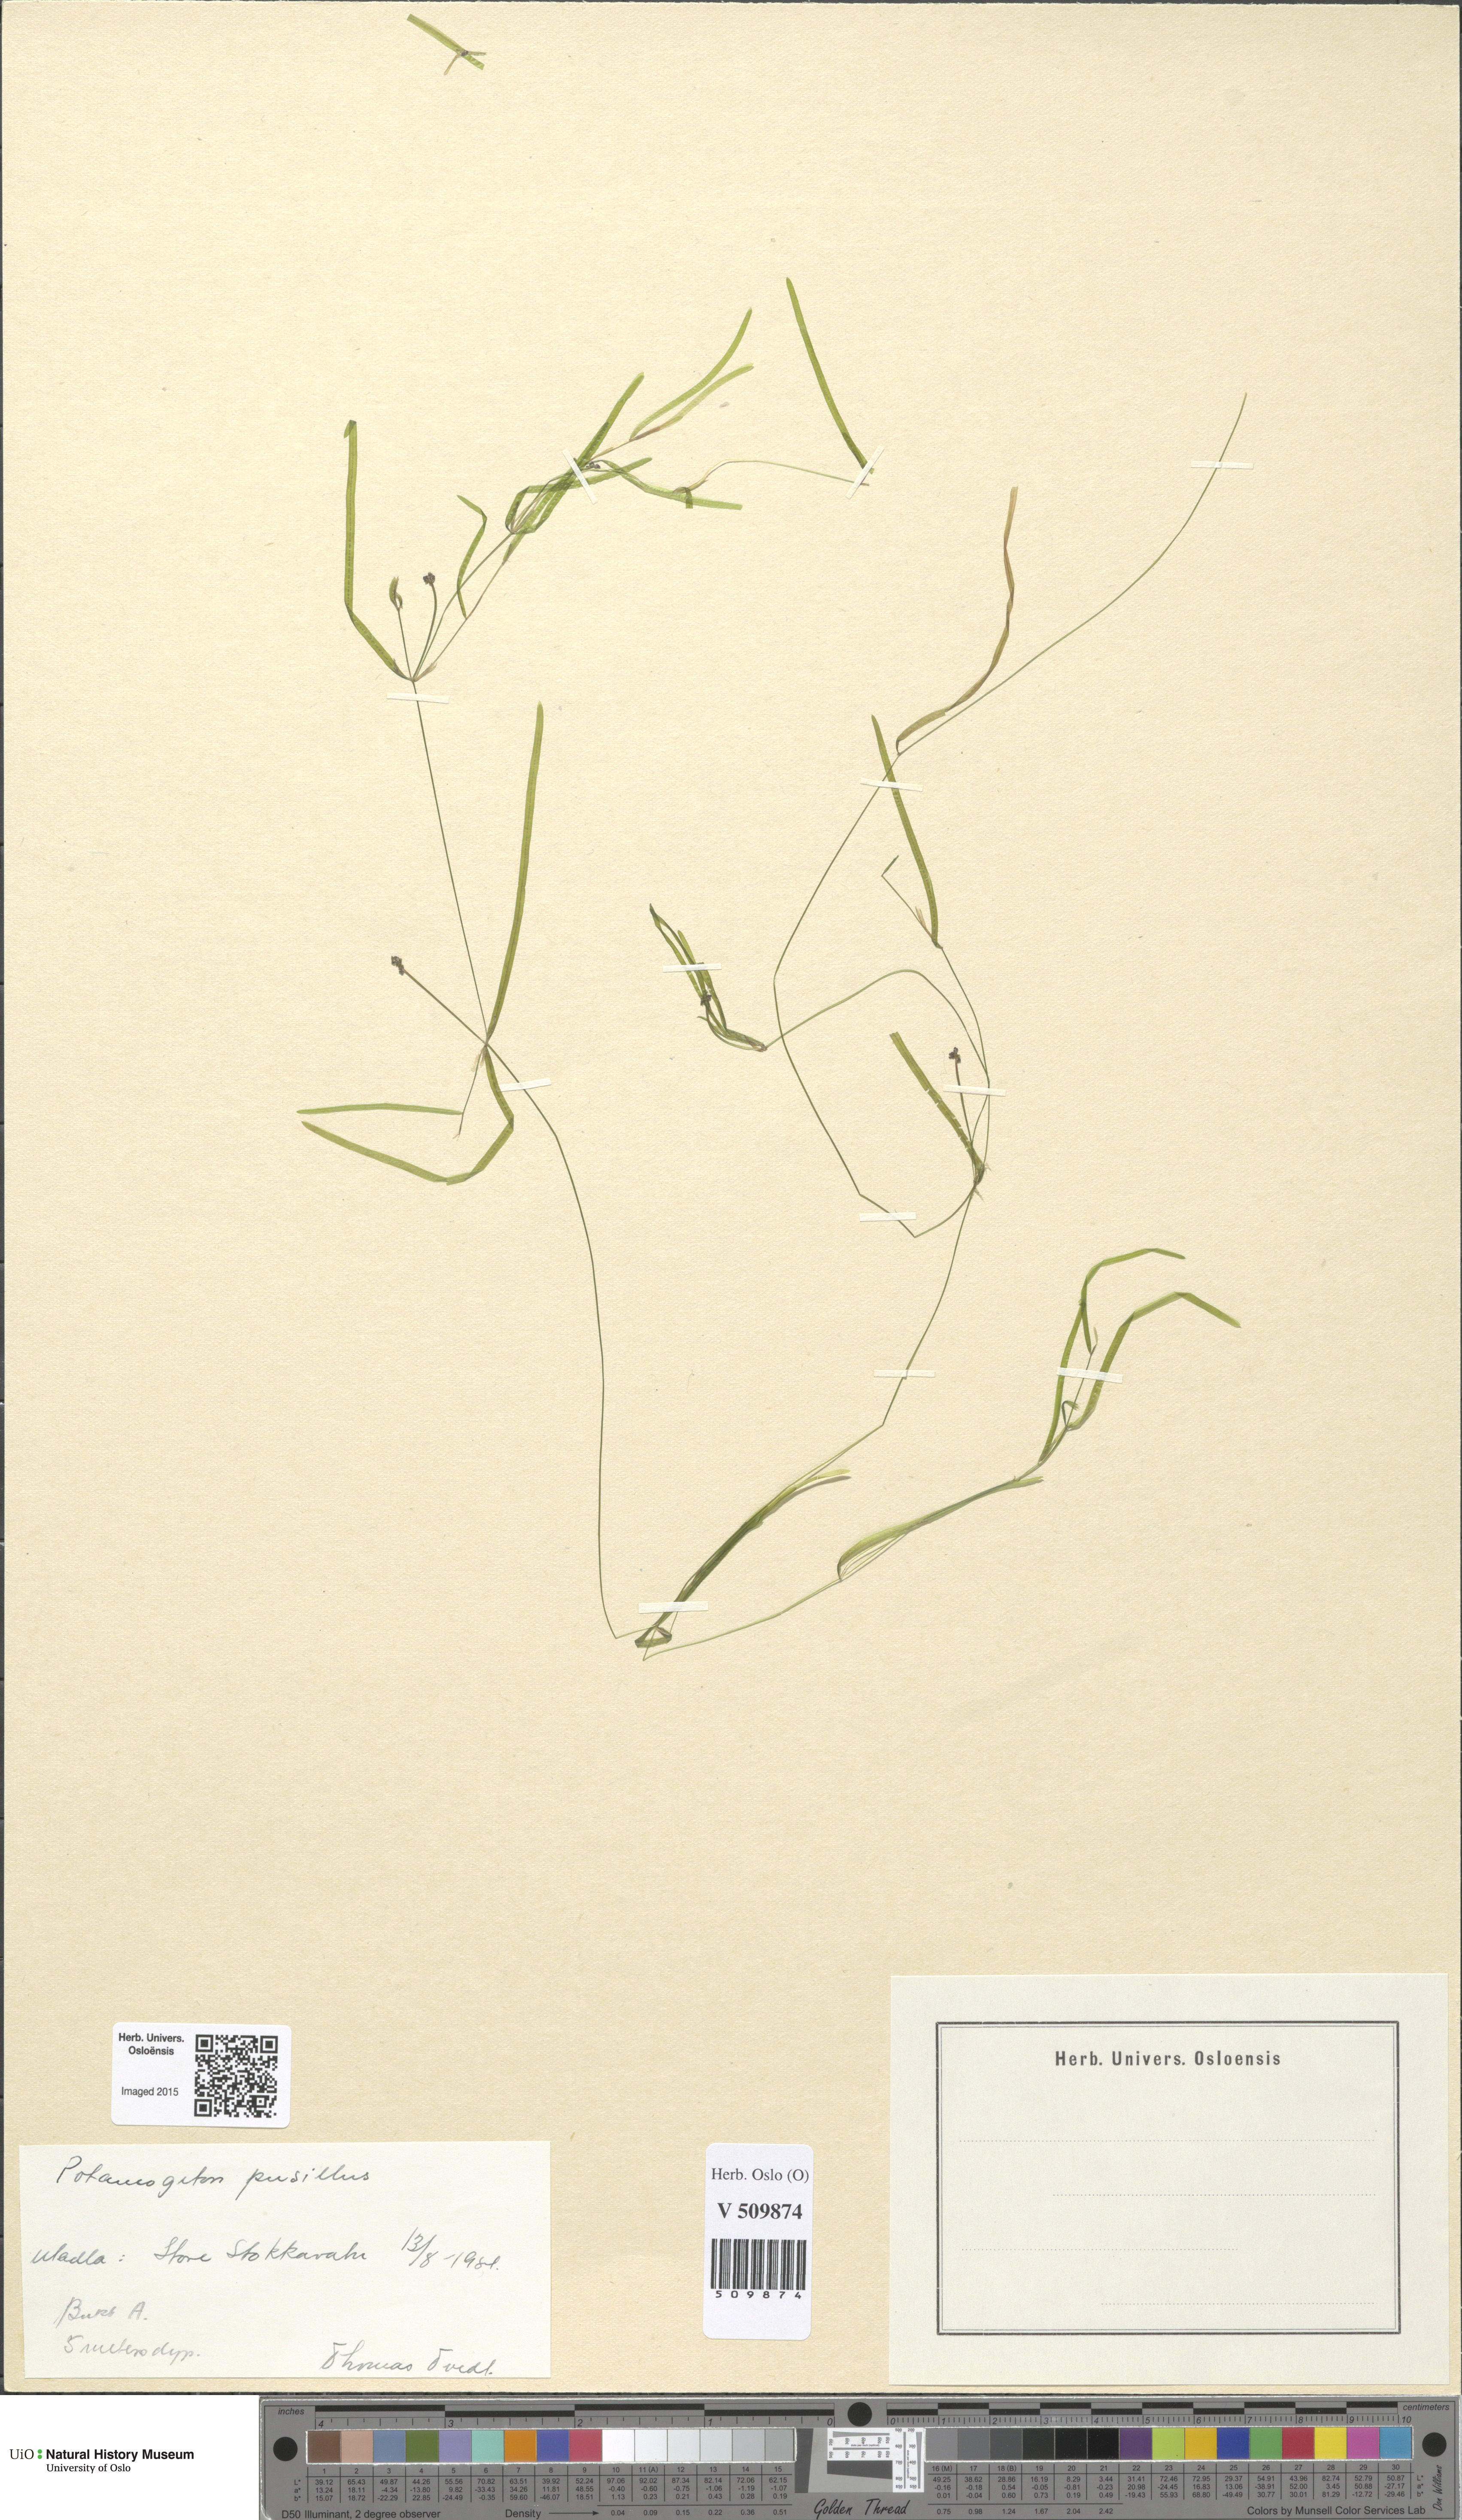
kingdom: Plantae
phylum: Tracheophyta
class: Liliopsida
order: Alismatales
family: Potamogetonaceae
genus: Potamogeton
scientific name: Potamogeton berchtoldii
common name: Small pondweed
